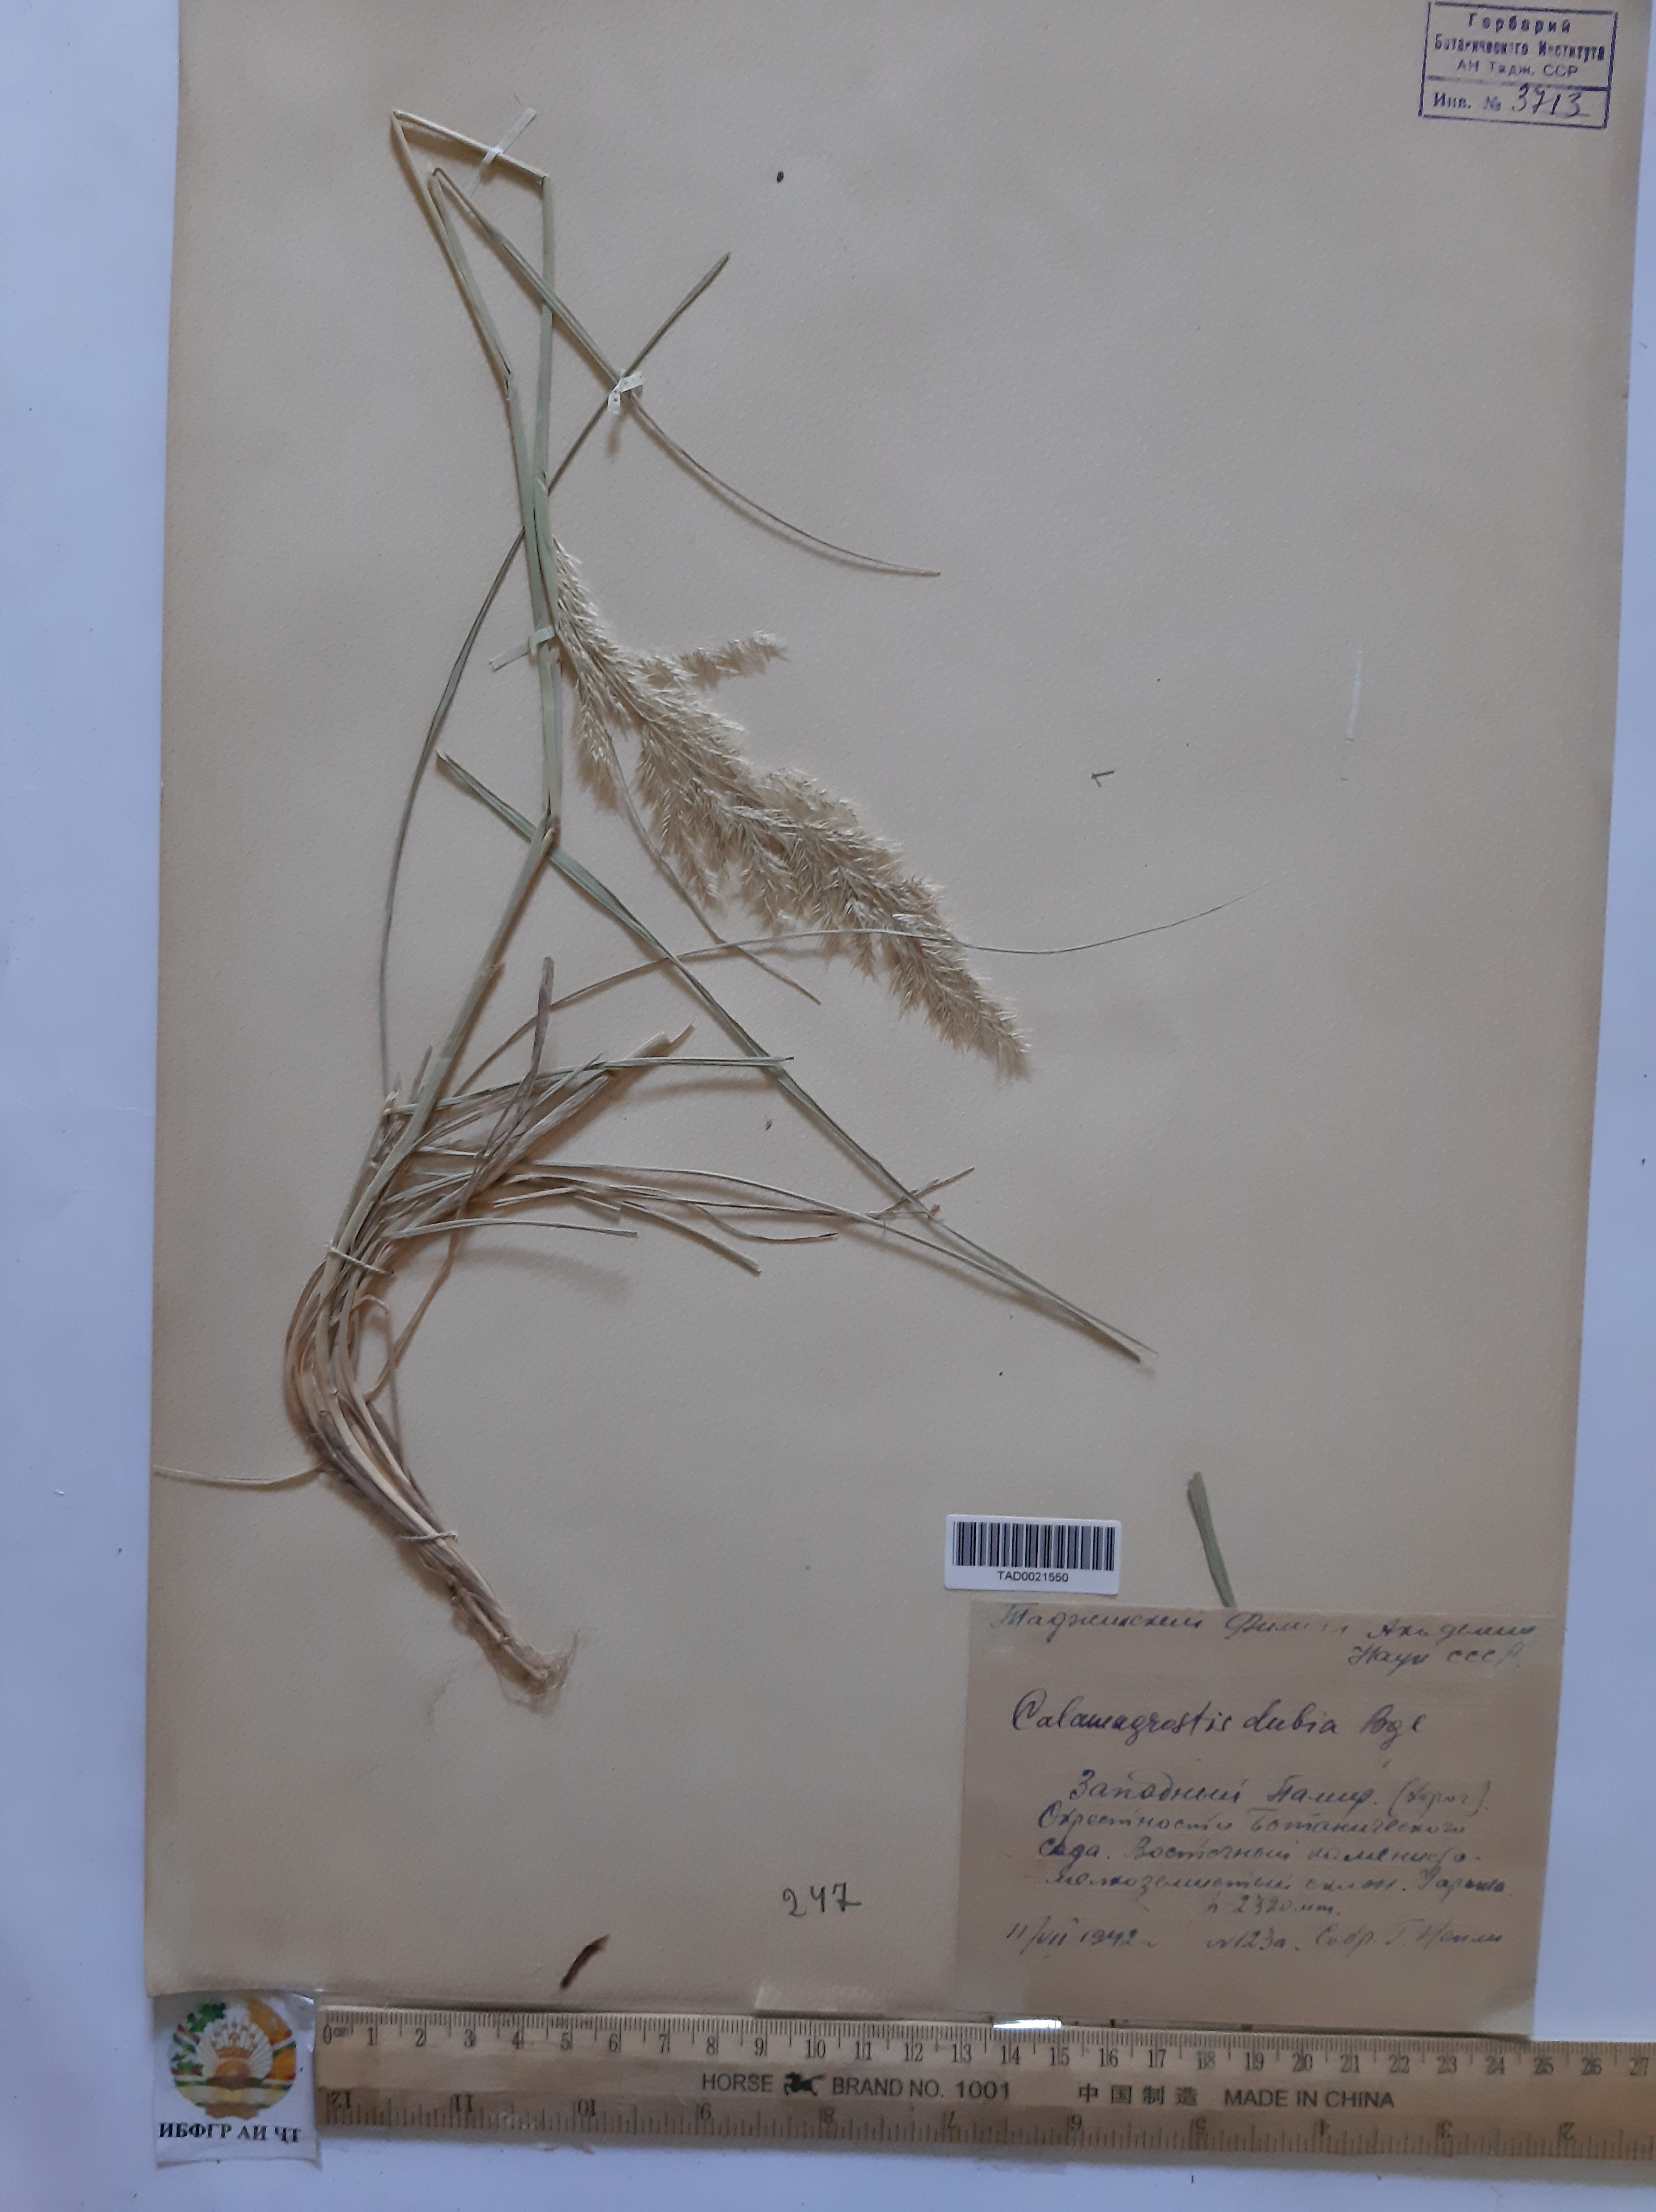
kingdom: Plantae
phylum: Tracheophyta
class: Liliopsida
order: Poales
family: Poaceae
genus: Calamagrostis
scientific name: Calamagrostis pseudophragmites
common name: Coastal small-reed
